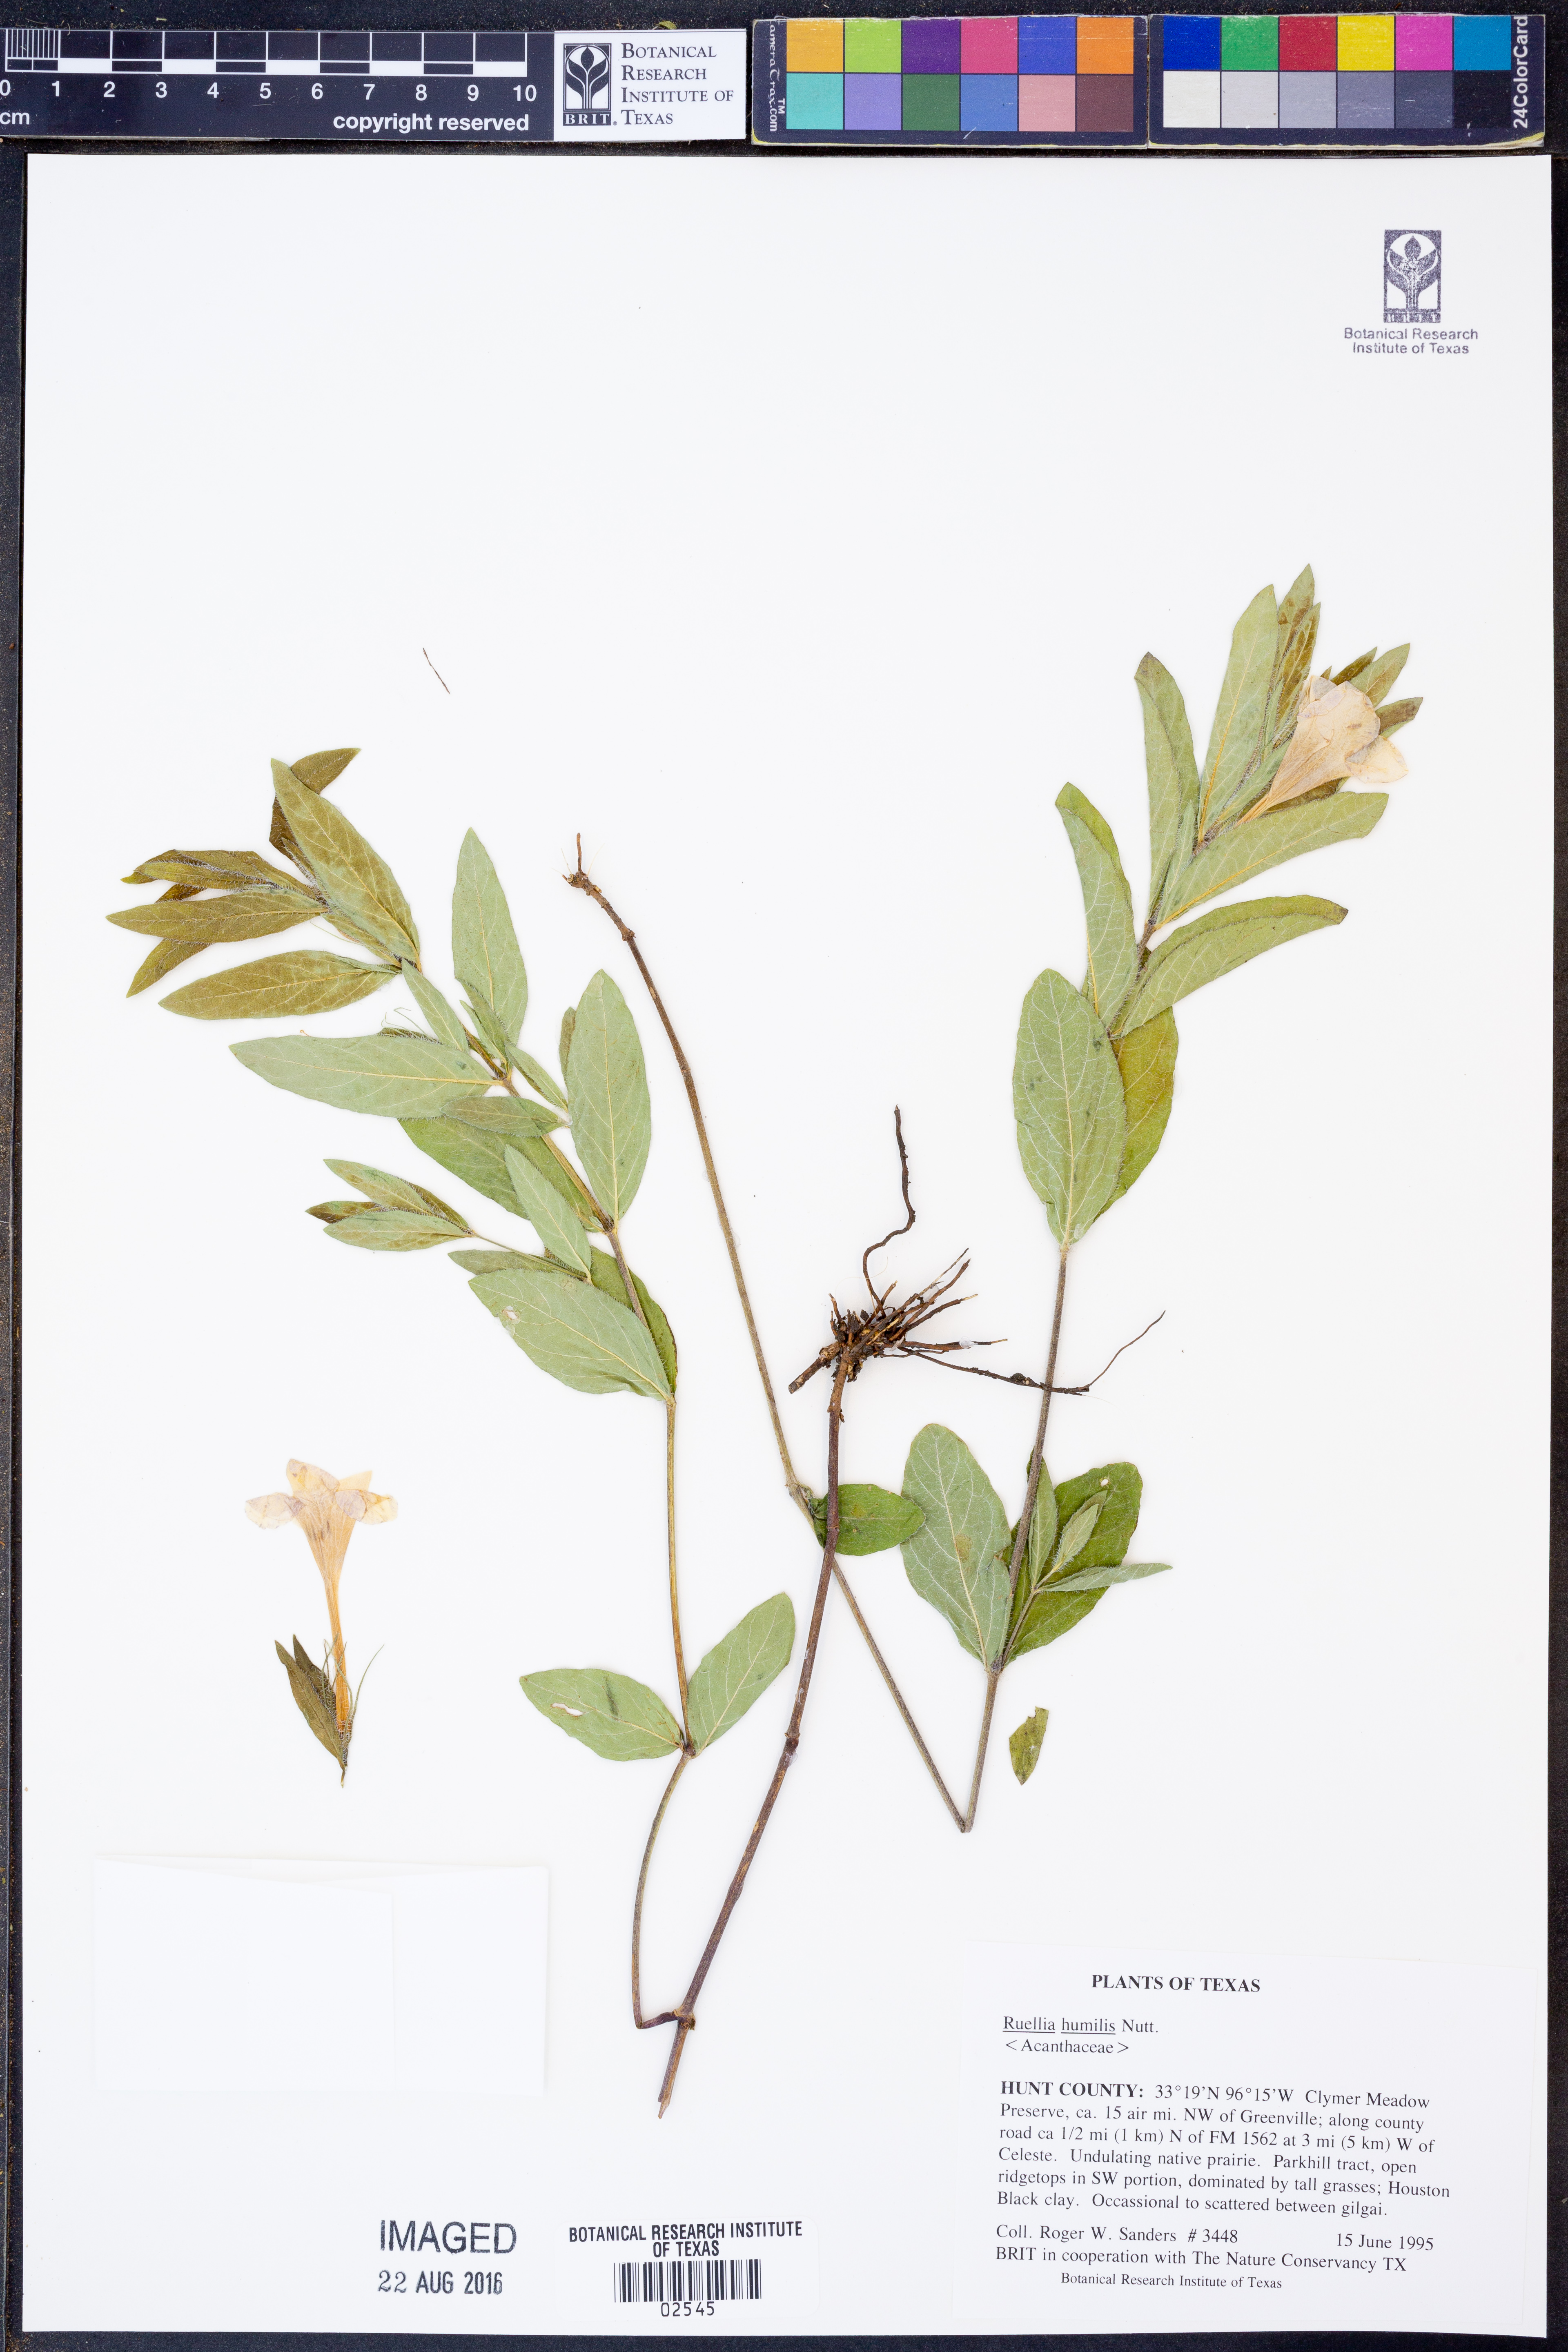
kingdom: Plantae
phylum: Tracheophyta
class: Magnoliopsida
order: Lamiales
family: Acanthaceae
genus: Ruellia
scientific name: Ruellia humilis
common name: Fringe-leaf ruellia
